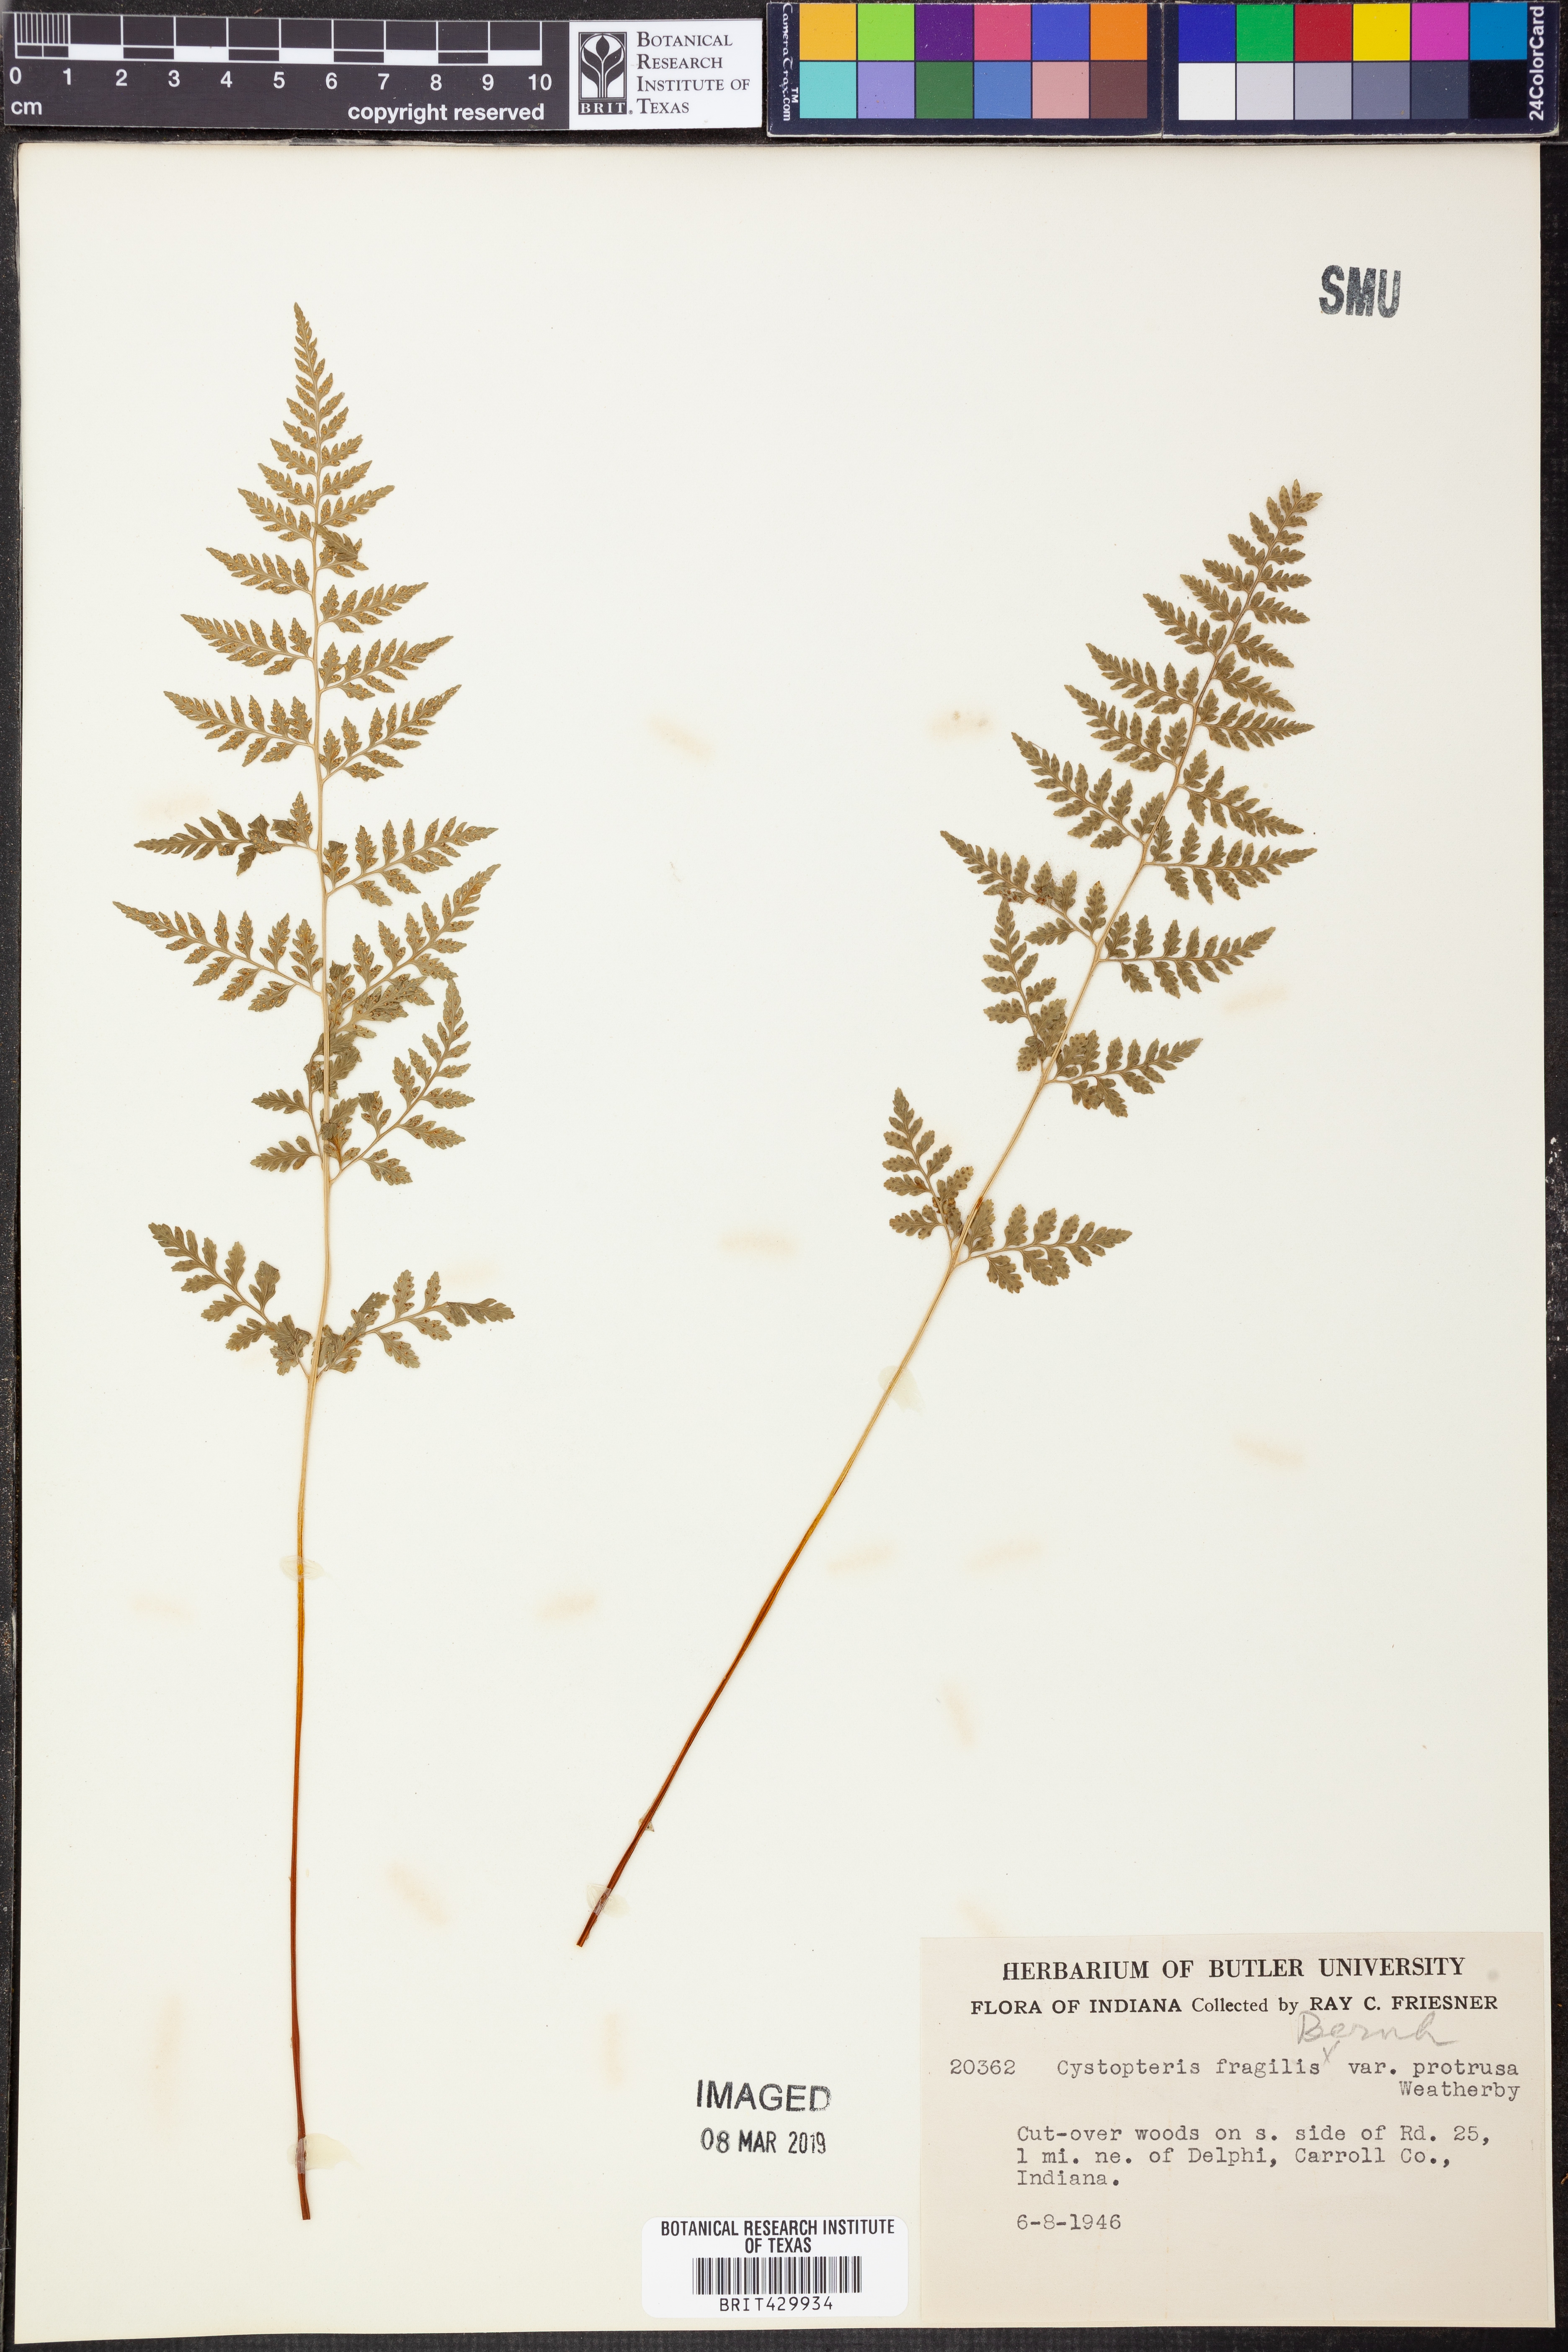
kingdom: Plantae
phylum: Tracheophyta
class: Polypodiopsida
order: Polypodiales
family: Cystopteridaceae
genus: Cystopteris
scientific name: Cystopteris protrusa
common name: Lowland brittle fern
